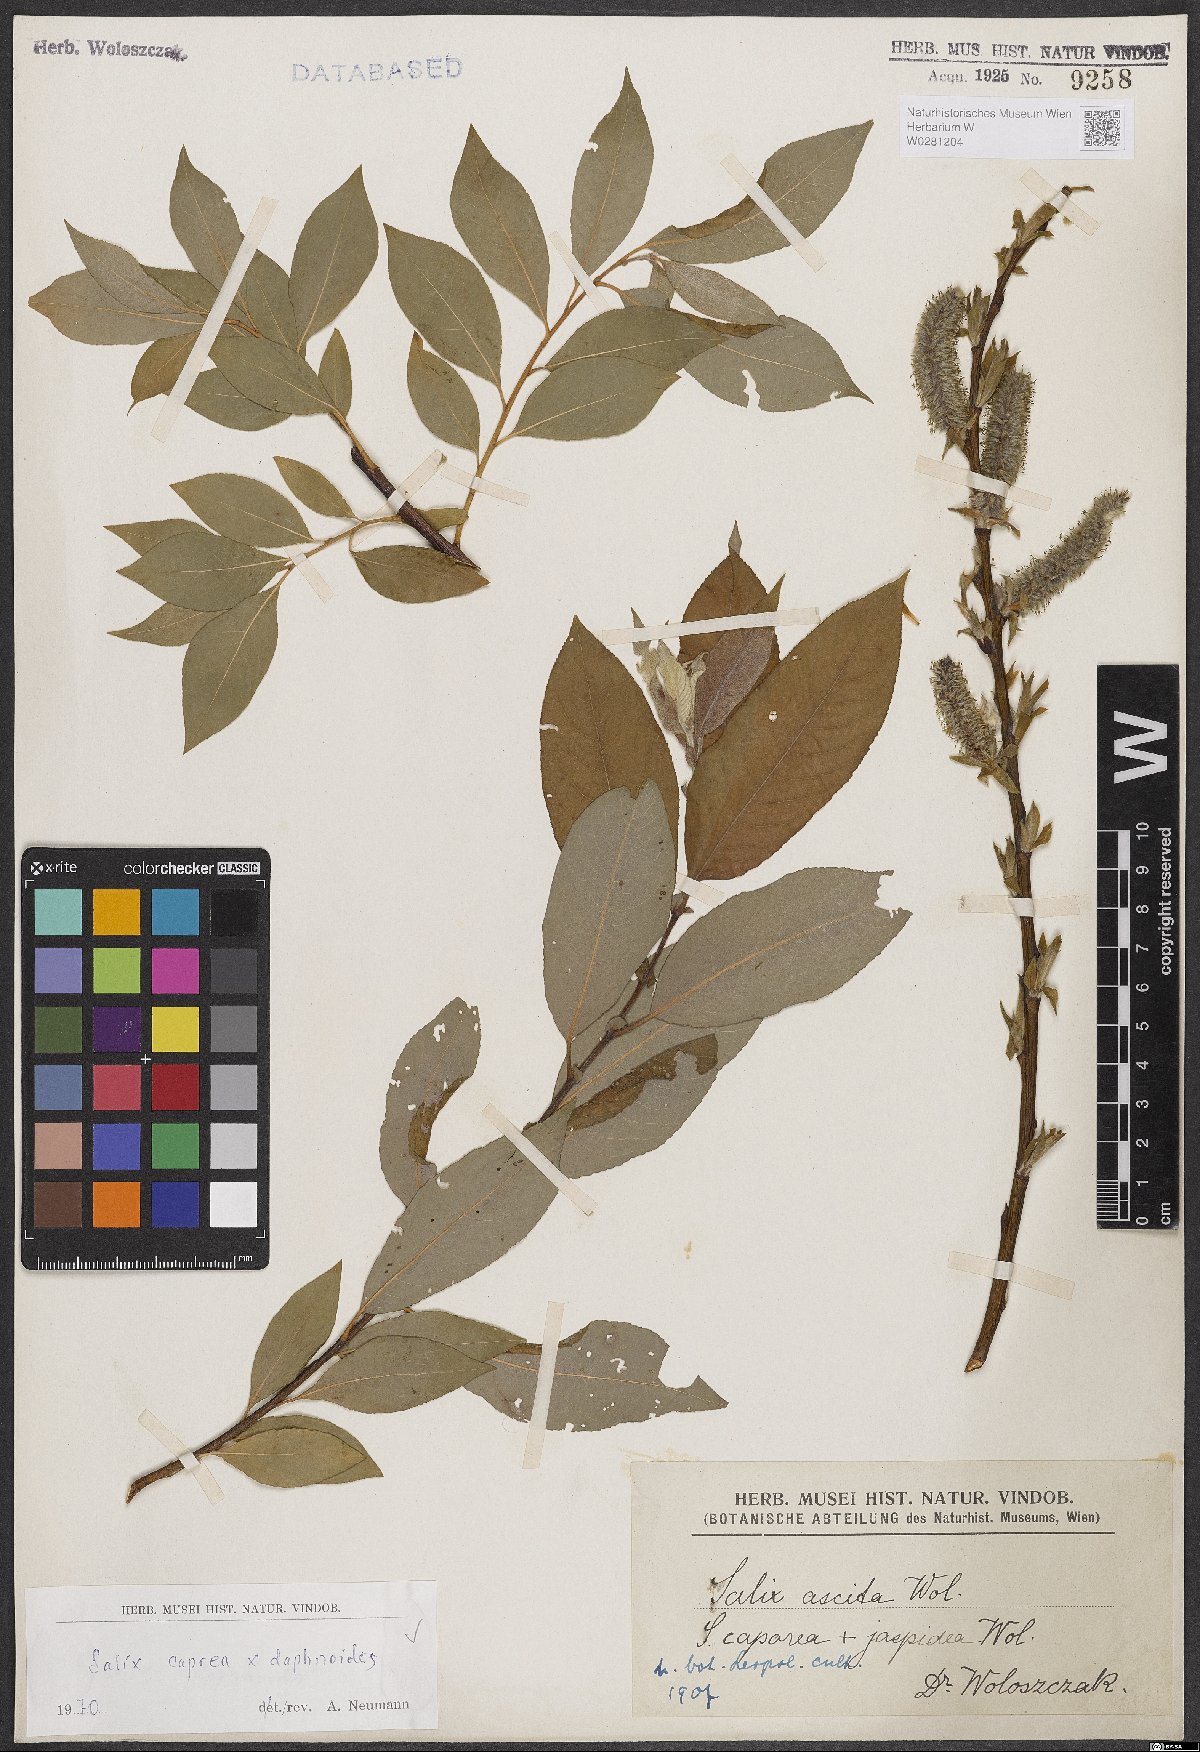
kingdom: Plantae
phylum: Tracheophyta
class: Magnoliopsida
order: Malpighiales
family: Salicaceae
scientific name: Salicaceae
